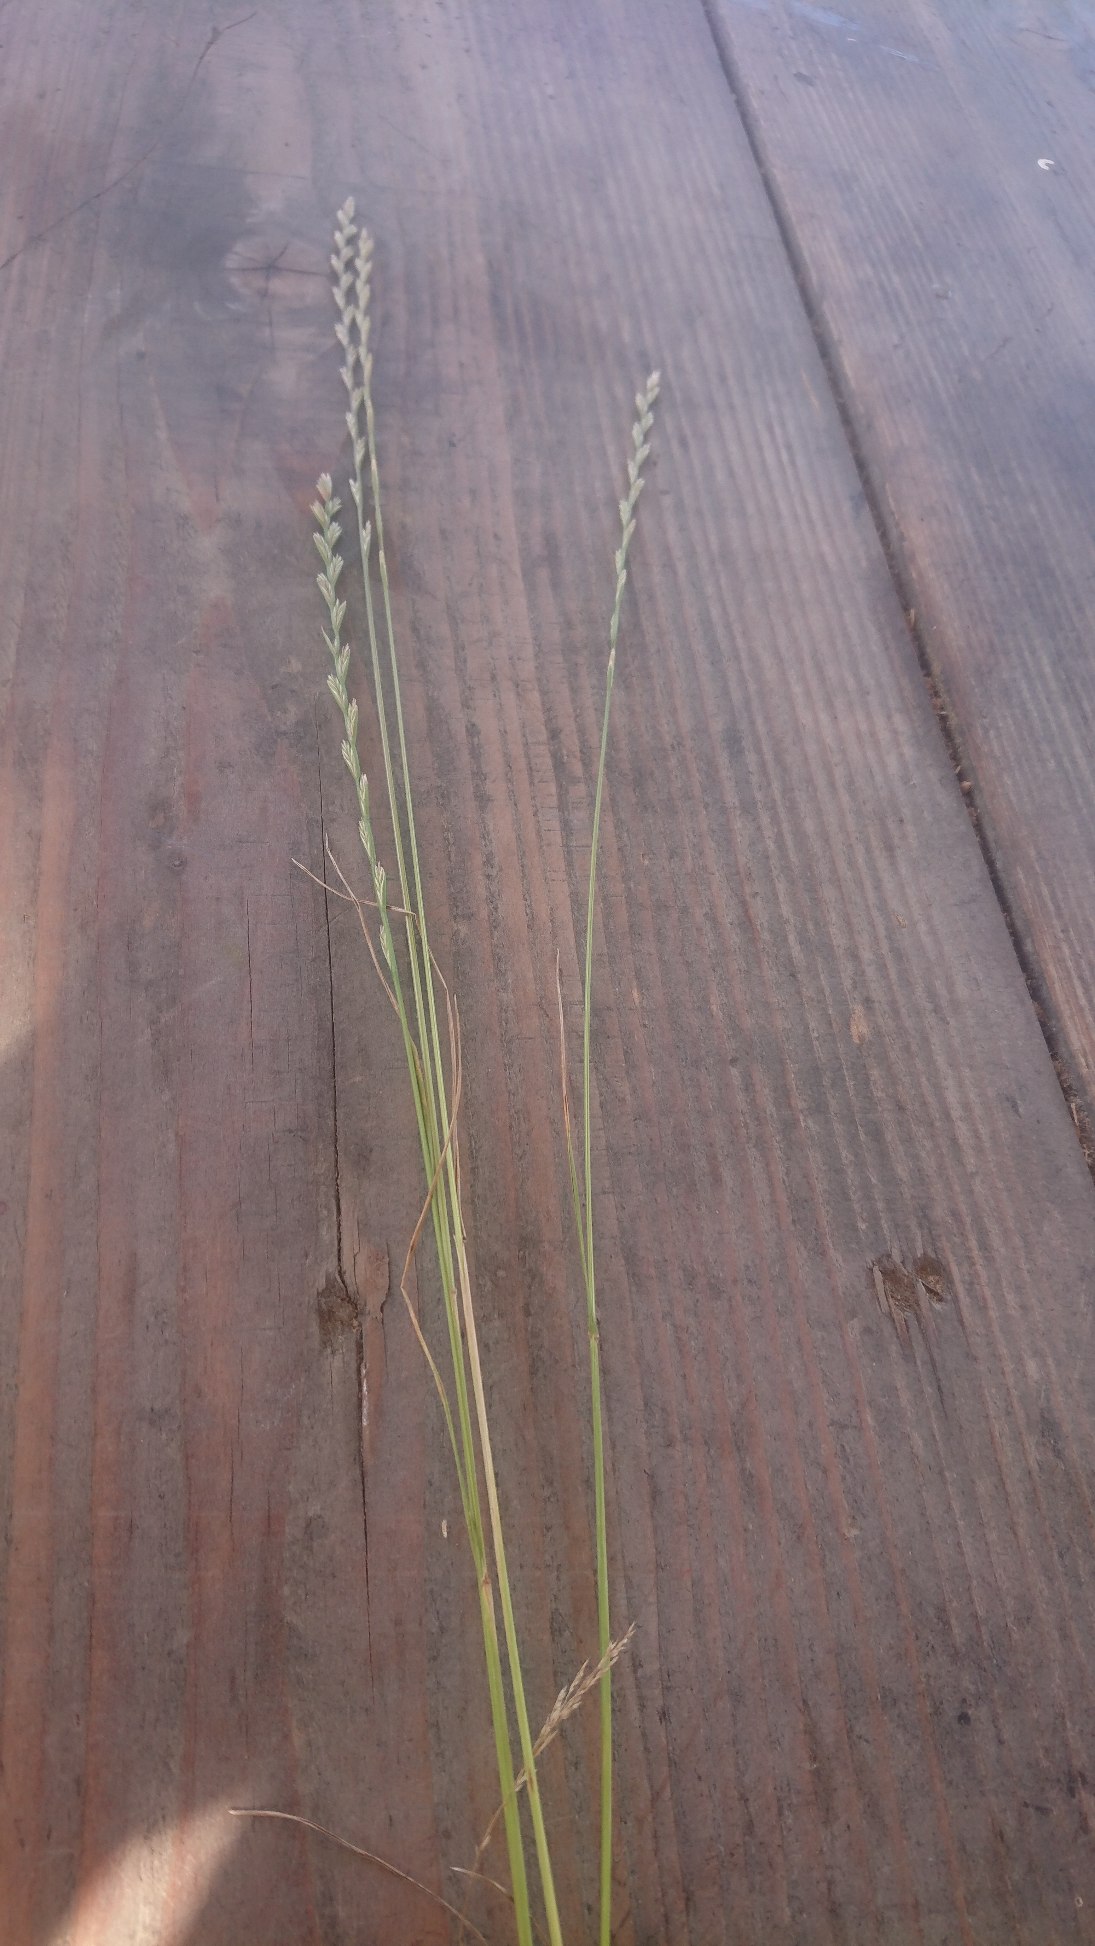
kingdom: Plantae
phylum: Tracheophyta
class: Liliopsida
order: Poales
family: Poaceae
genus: Lolium
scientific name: Lolium perenne
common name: Almindelig rajgræs
